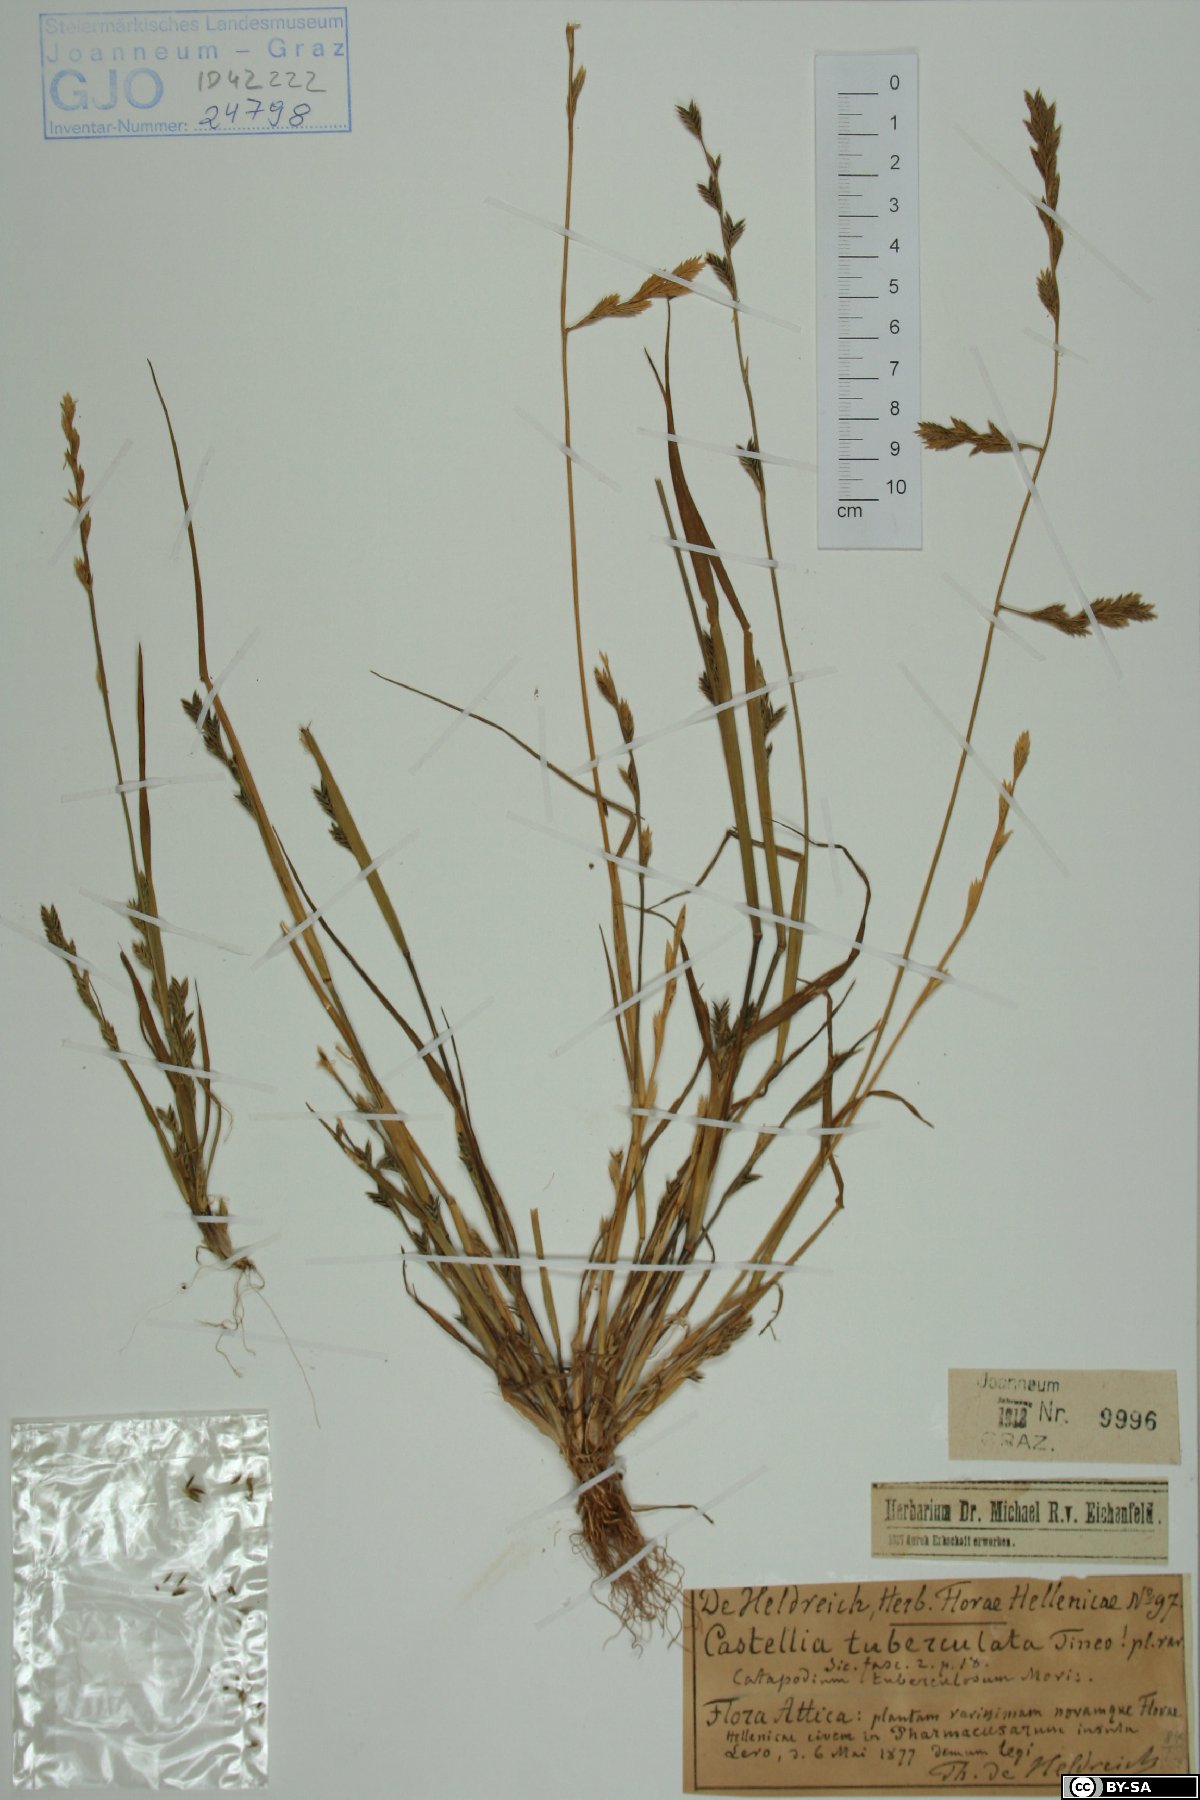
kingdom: Plantae
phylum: Tracheophyta
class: Liliopsida
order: Poales
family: Poaceae
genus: Castellia
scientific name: Castellia tuberculosa
